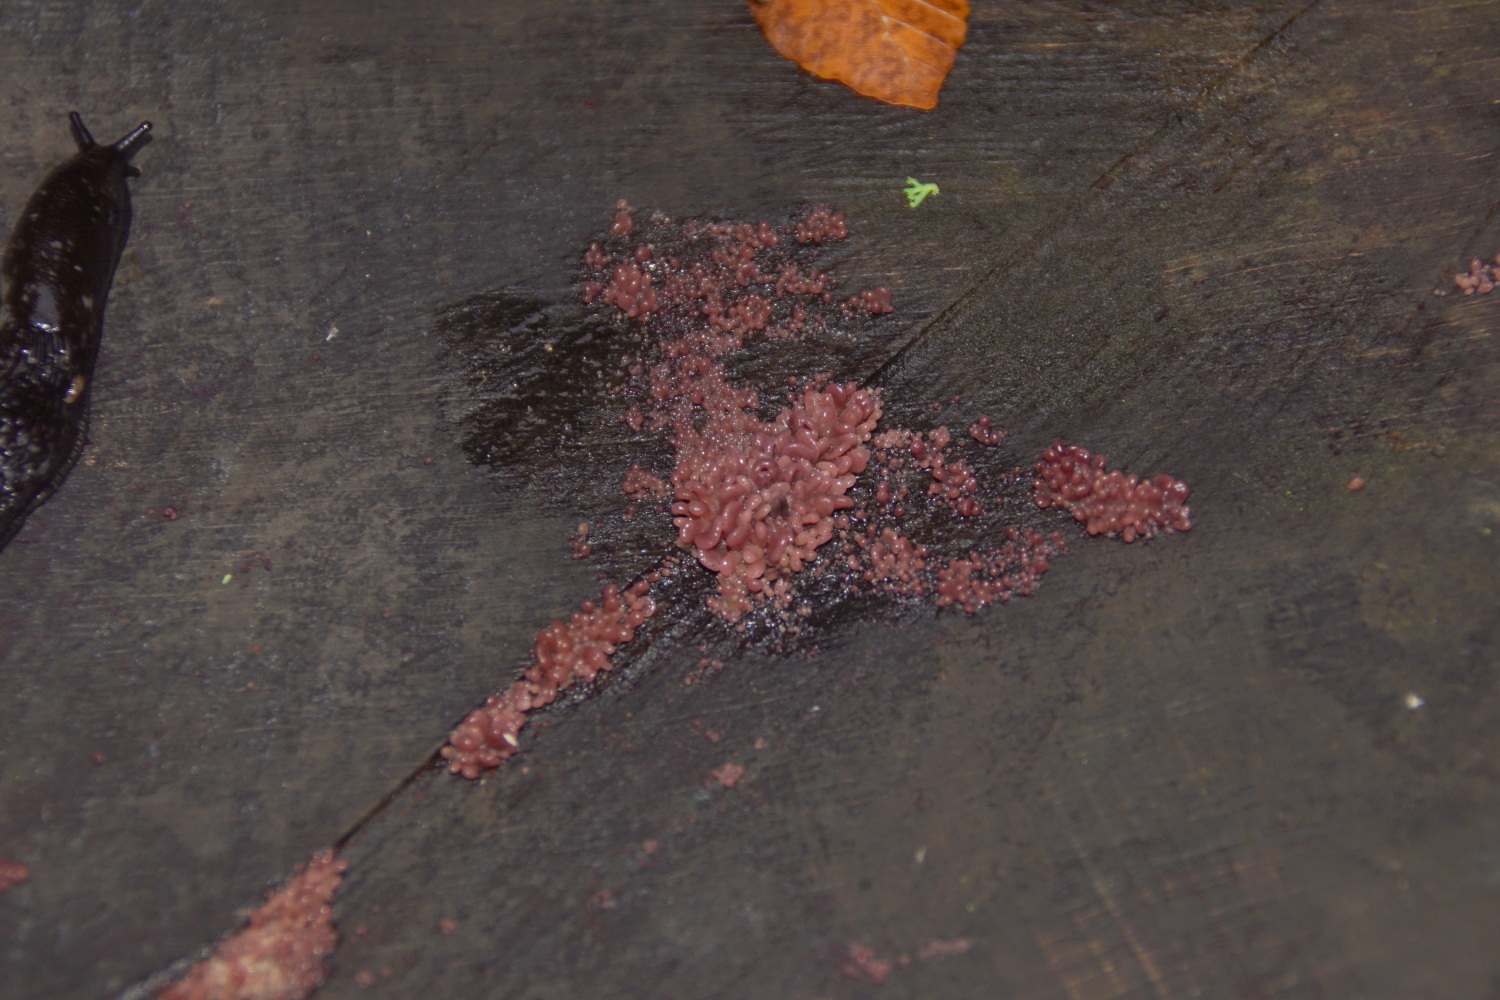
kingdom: Fungi
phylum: Ascomycota
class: Leotiomycetes
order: Helotiales
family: Gelatinodiscaceae
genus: Ascocoryne
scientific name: Ascocoryne sarcoides
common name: rødlilla sejskive
